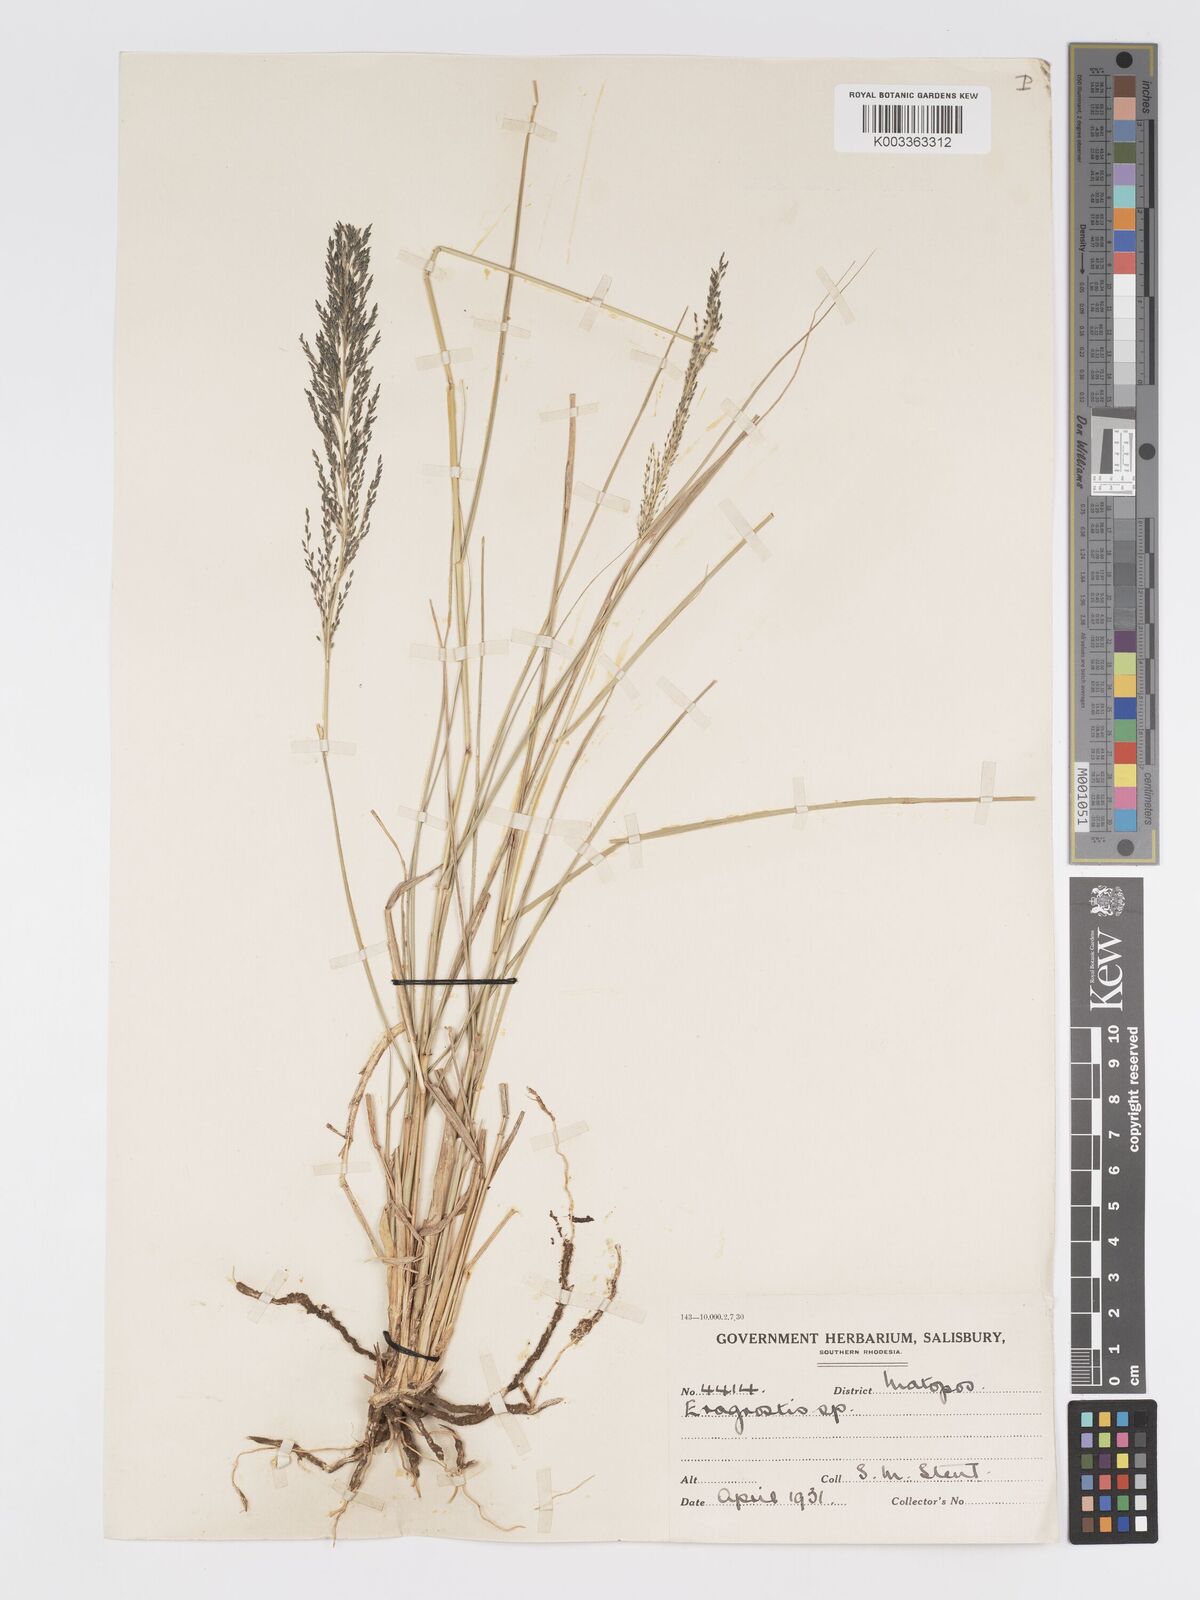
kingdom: Plantae
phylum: Tracheophyta
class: Liliopsida
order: Poales
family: Poaceae
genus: Eragrostis
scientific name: Eragrostis curvula
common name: African love-grass
